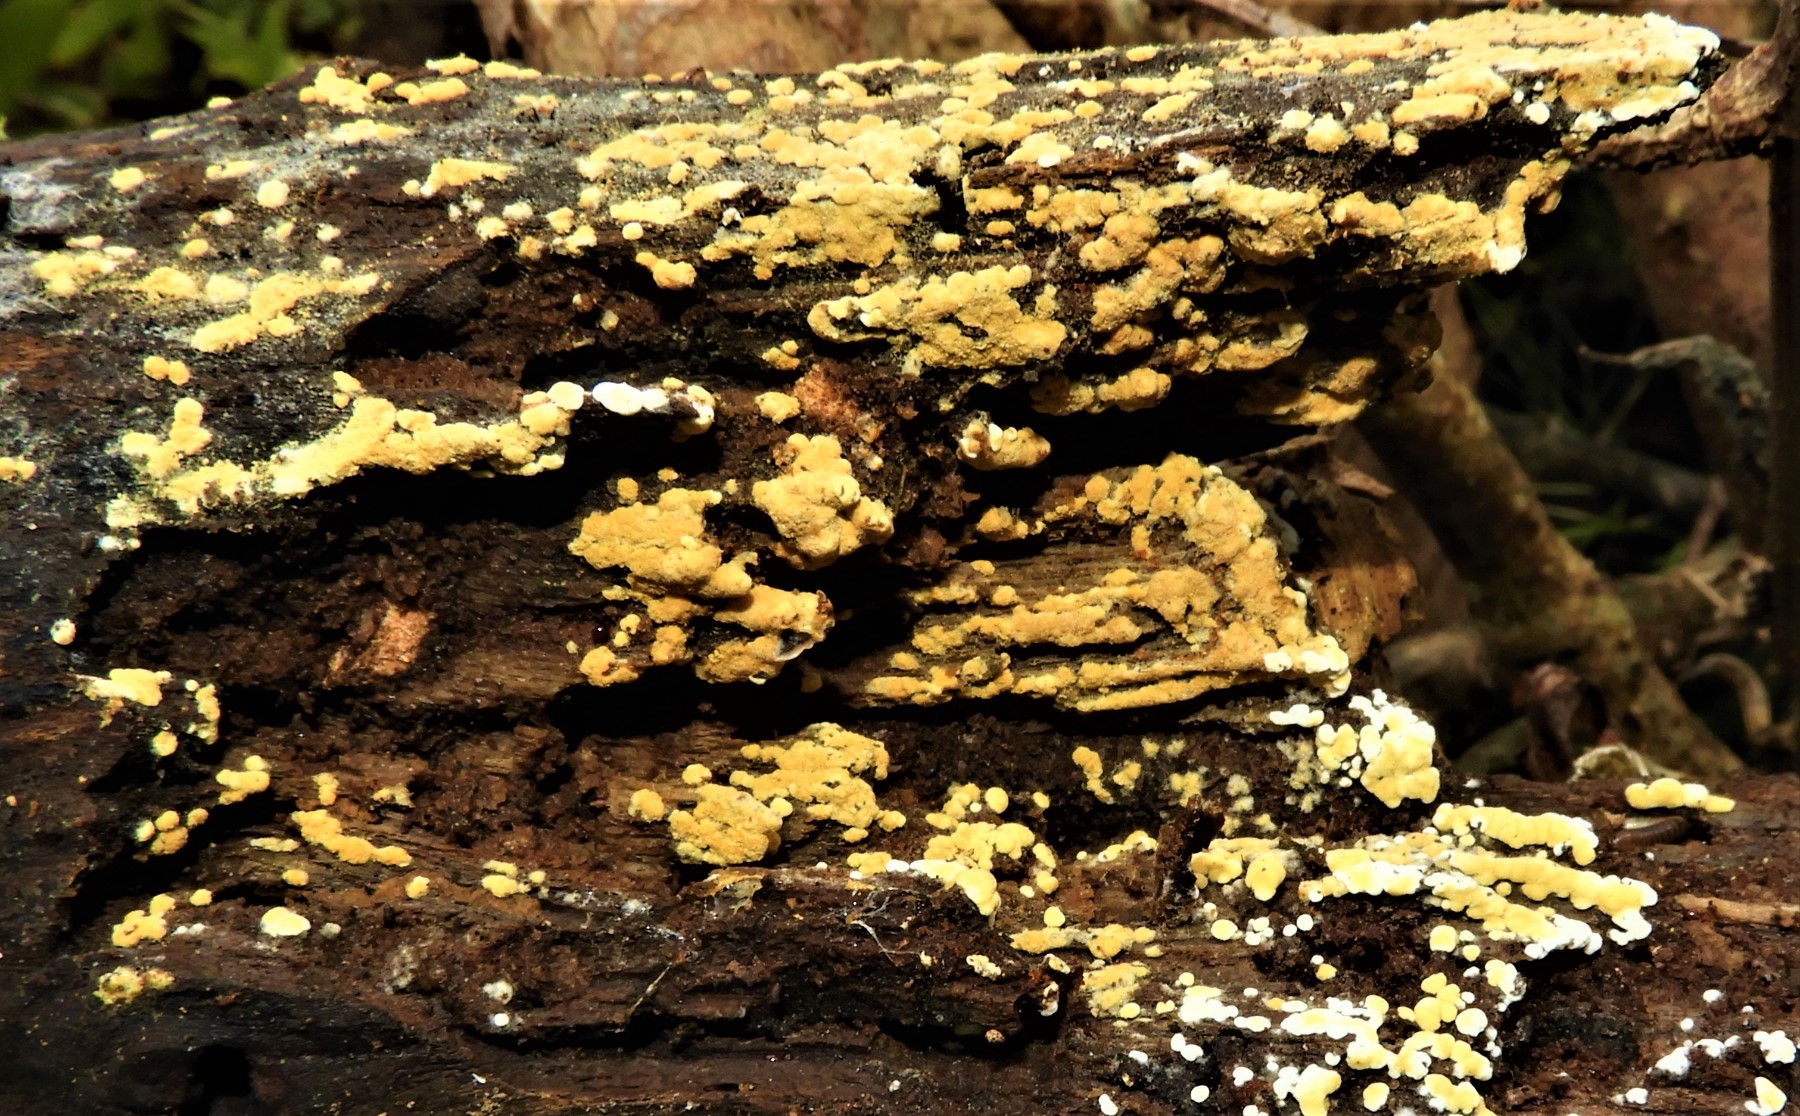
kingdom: Fungi
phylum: Basidiomycota
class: Agaricomycetes
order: Cantharellales
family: Botryobasidiaceae
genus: Botryobasidium
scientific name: Botryobasidium aureum
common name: gylden spindhinde
